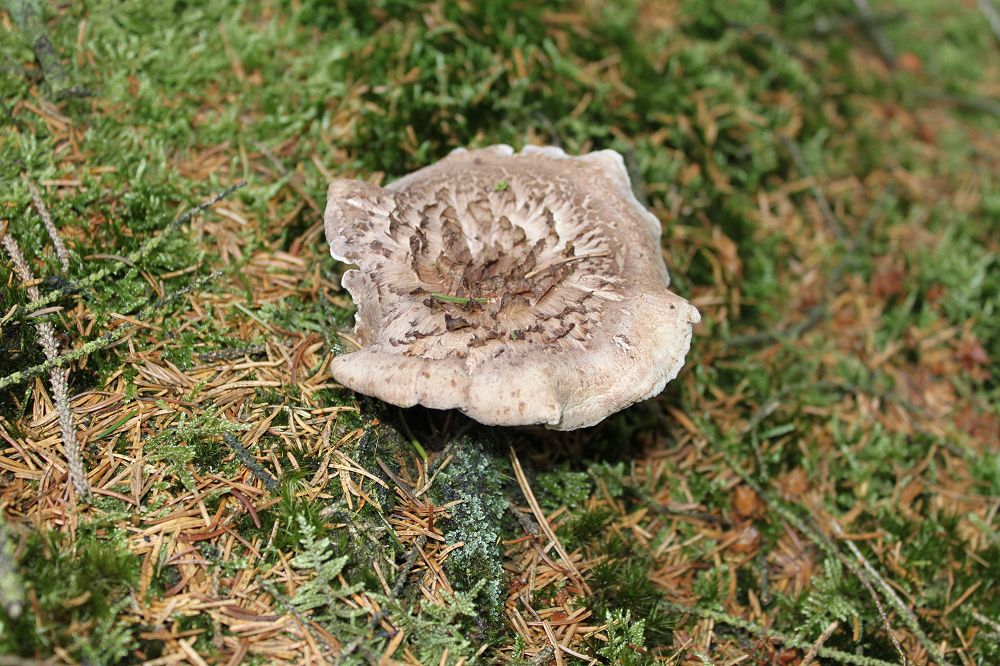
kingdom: Fungi
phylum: Basidiomycota
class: Agaricomycetes
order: Thelephorales
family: Thelephoraceae
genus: Phellodon
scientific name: Phellodon violascens
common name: violetbrun duftpigsvamp
